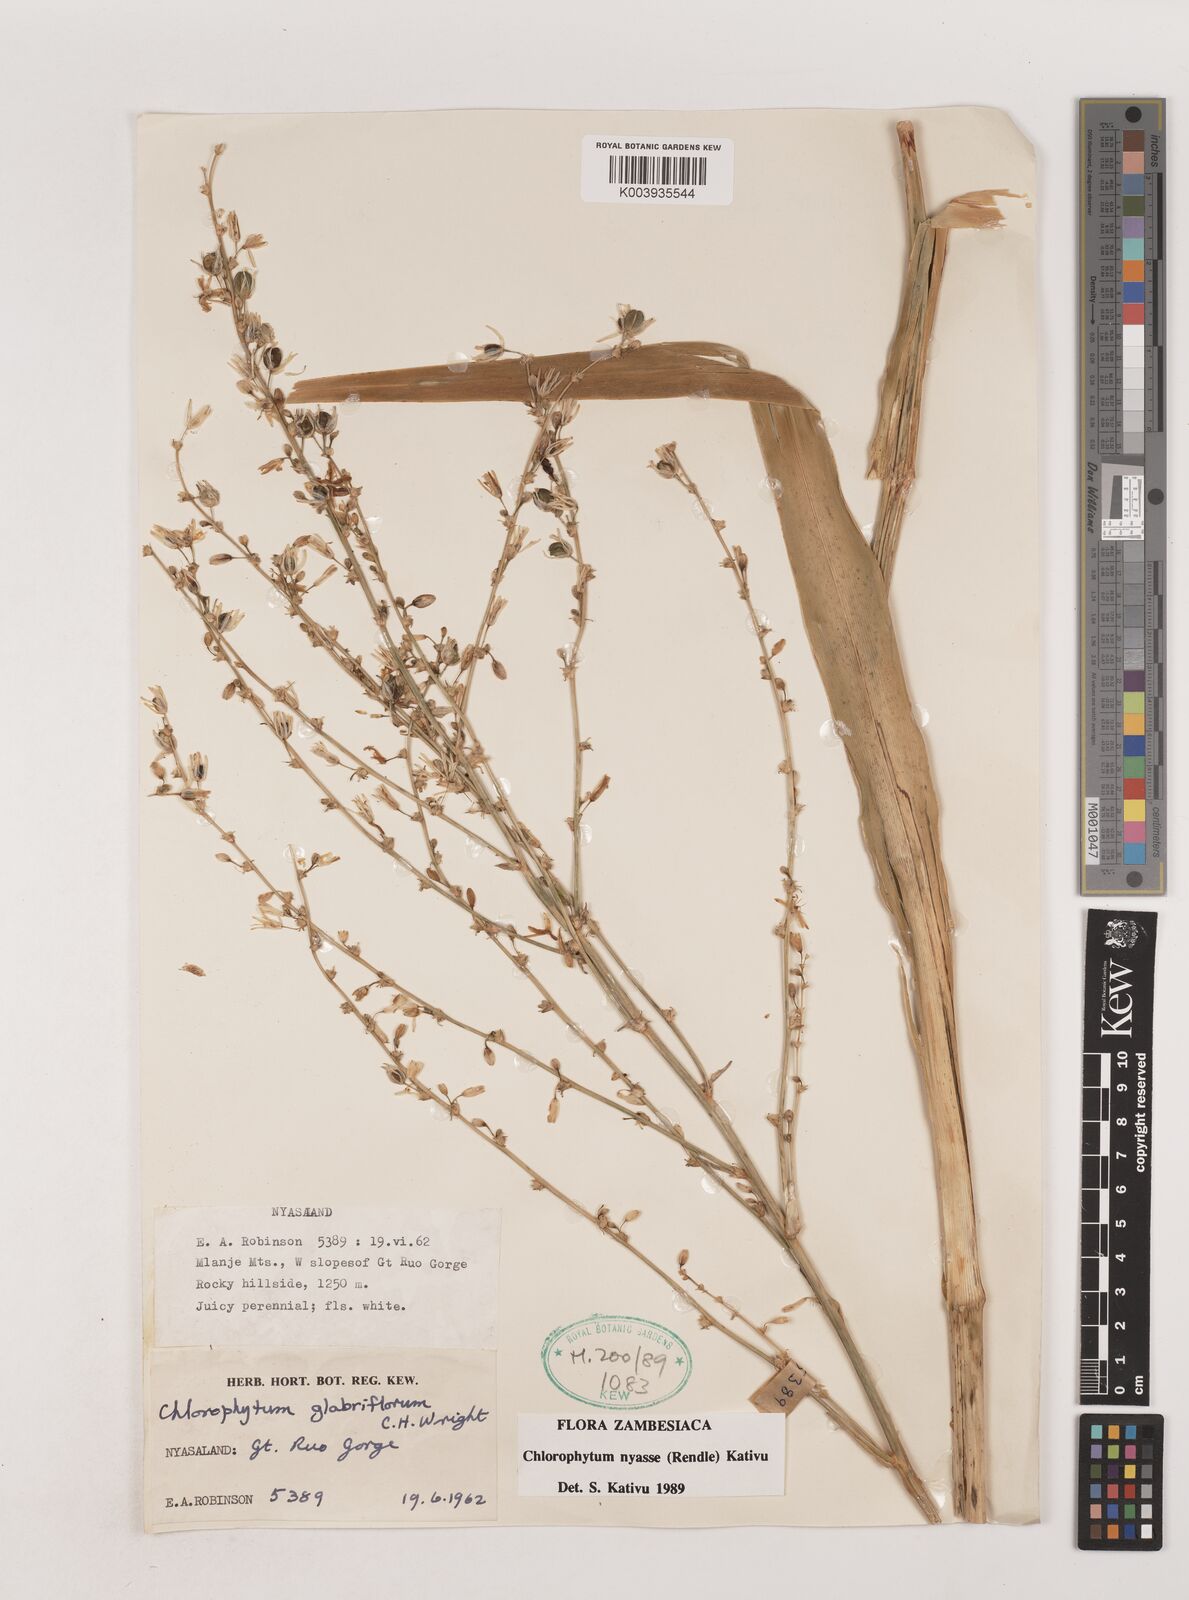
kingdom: Plantae
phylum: Tracheophyta
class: Liliopsida
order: Asparagales
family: Asparagaceae
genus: Chlorophytum
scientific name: Chlorophytum nyasae
